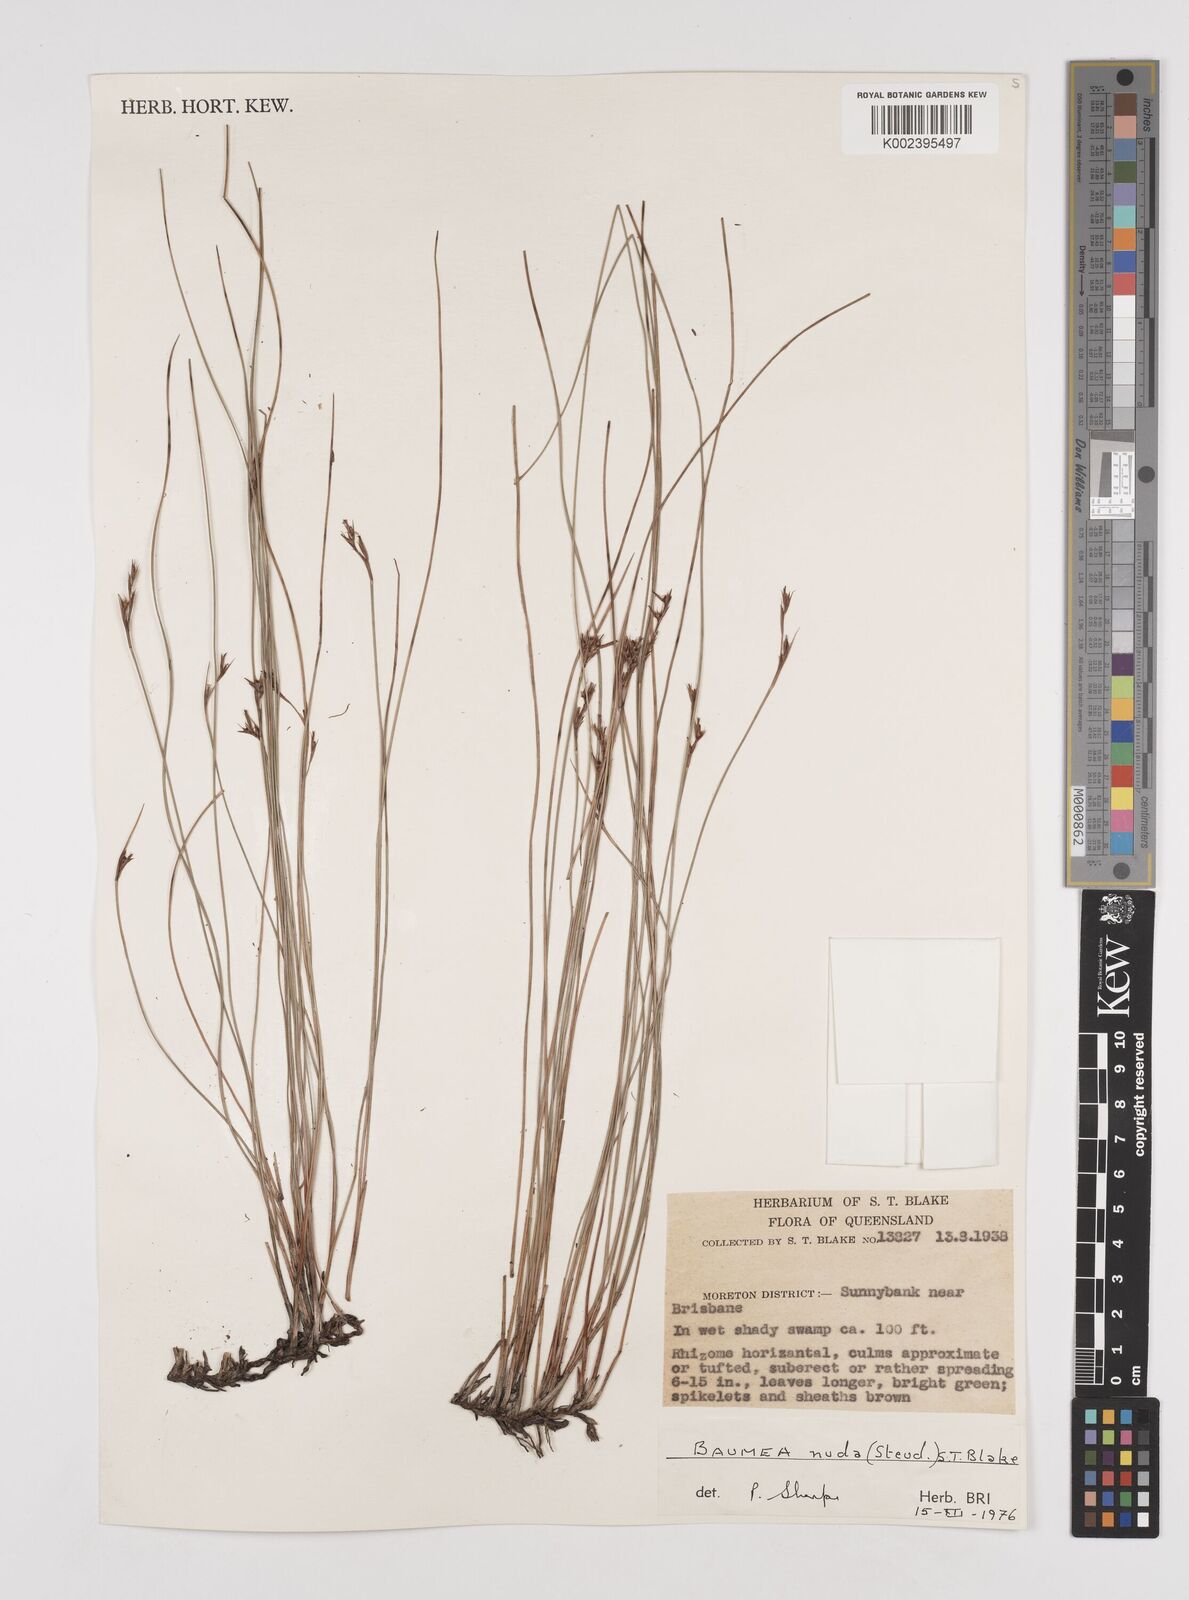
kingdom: Plantae
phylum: Tracheophyta
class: Liliopsida
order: Poales
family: Cyperaceae
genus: Machaerina
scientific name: Machaerina nuda
